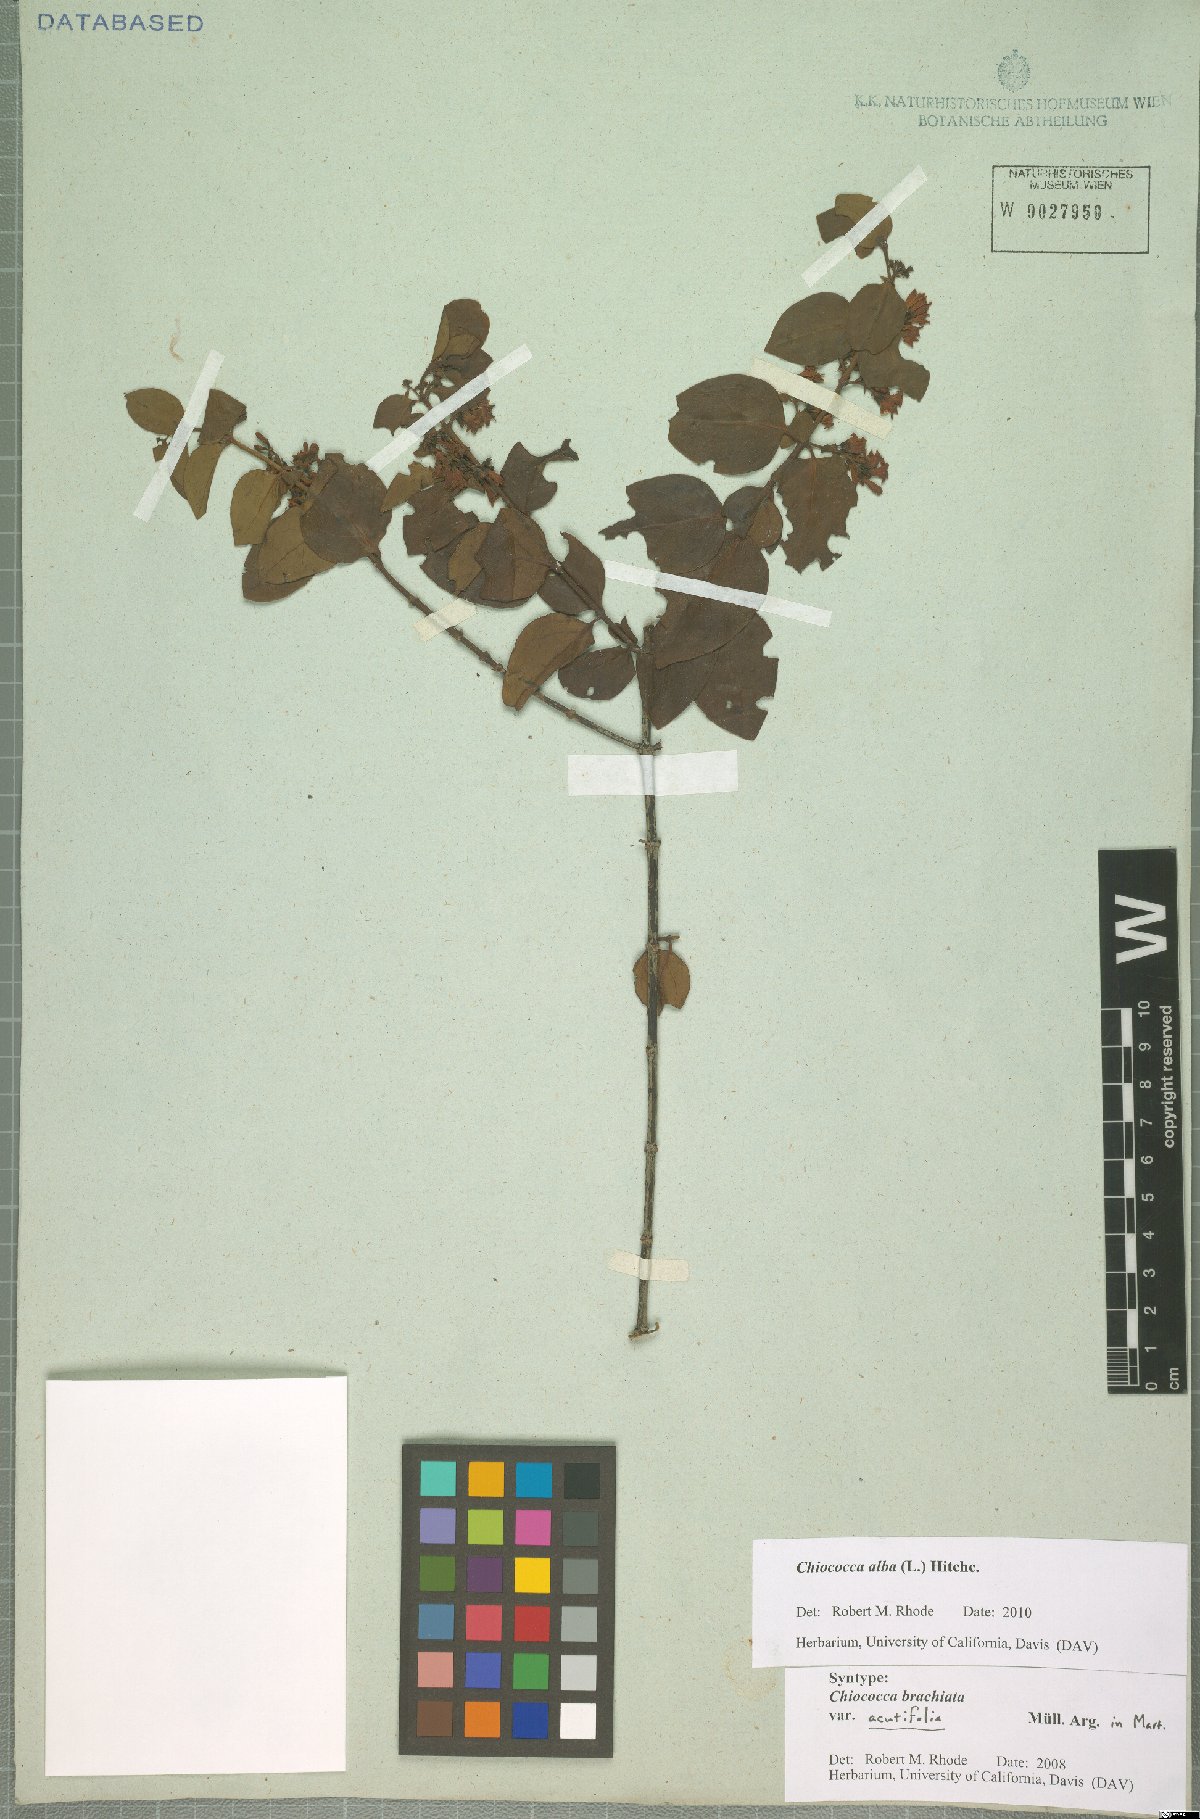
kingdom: Plantae
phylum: Tracheophyta
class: Magnoliopsida
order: Gentianales
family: Rubiaceae
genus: Chiococca
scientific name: Chiococca alba
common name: Snowberry
